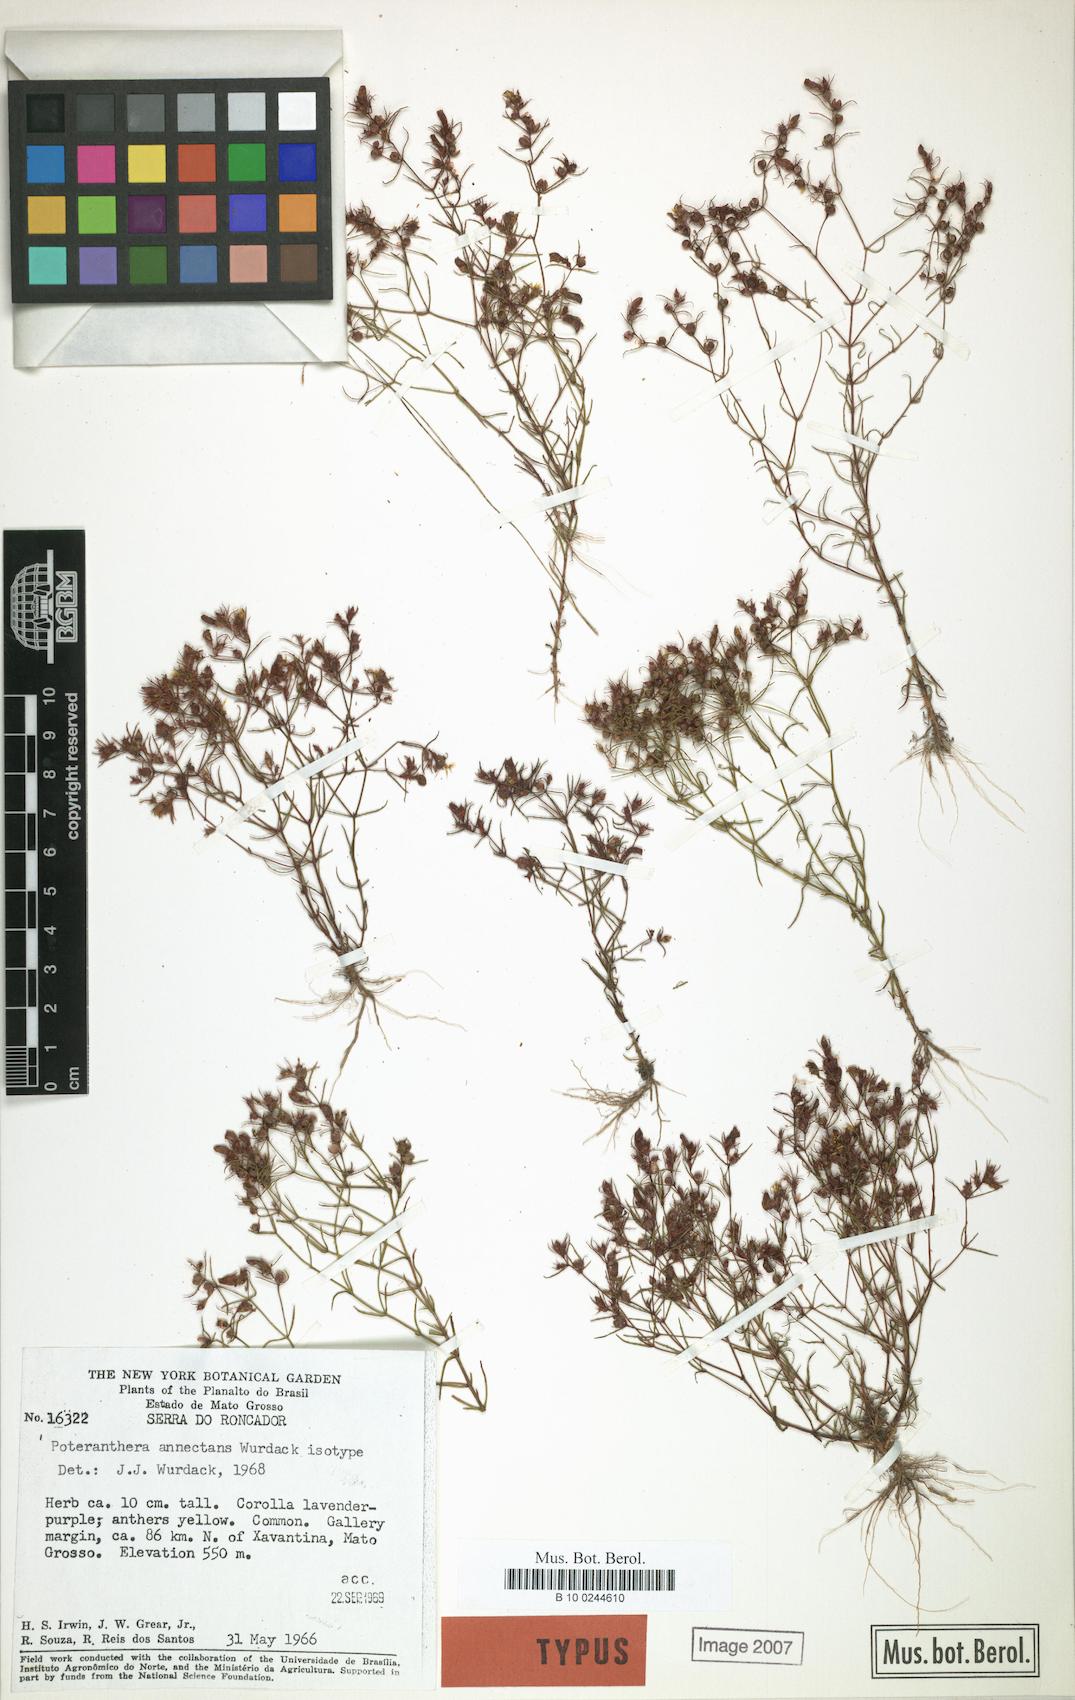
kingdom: Plantae
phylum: Tracheophyta
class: Magnoliopsida
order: Myrtales
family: Melastomataceae
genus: Poteranthera
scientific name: Poteranthera annectans
